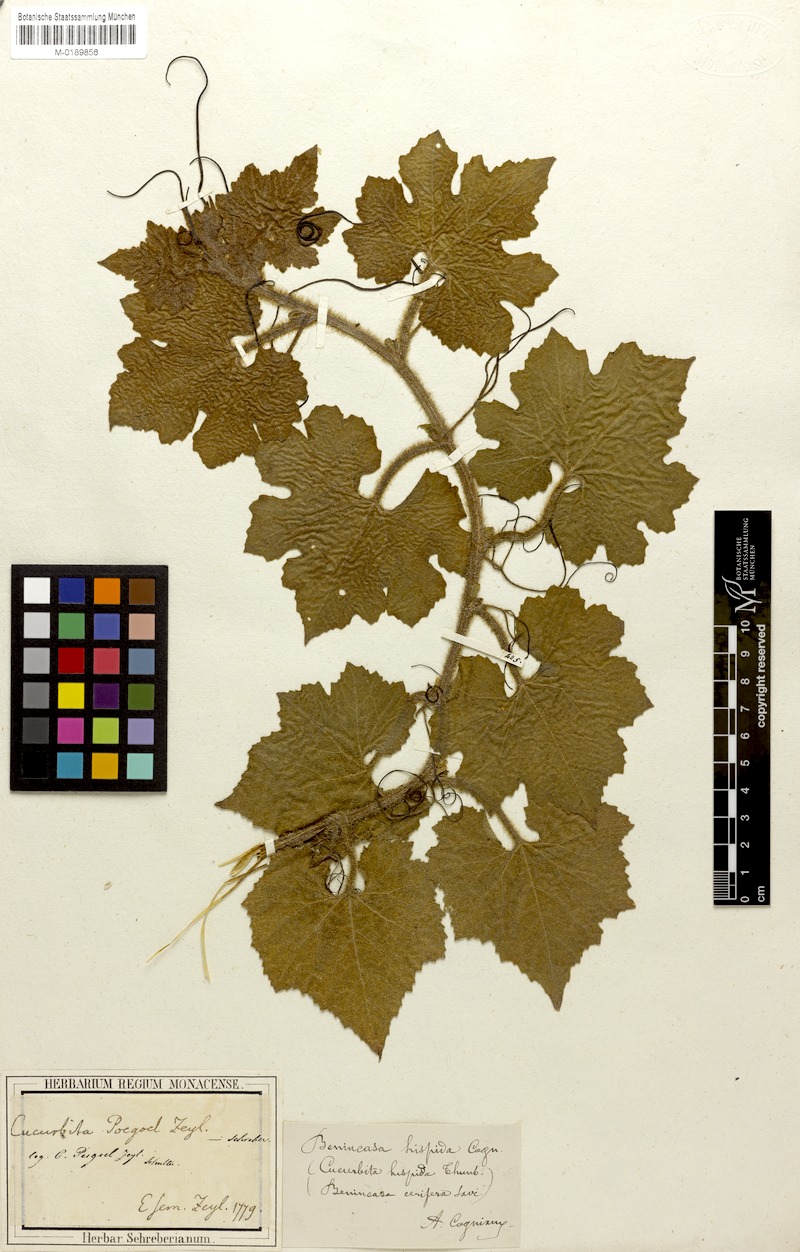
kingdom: Plantae
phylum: Tracheophyta
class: Magnoliopsida
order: Cucurbitales
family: Cucurbitaceae
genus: Benincasa
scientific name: Benincasa hispida
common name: Chinese-watermelon
